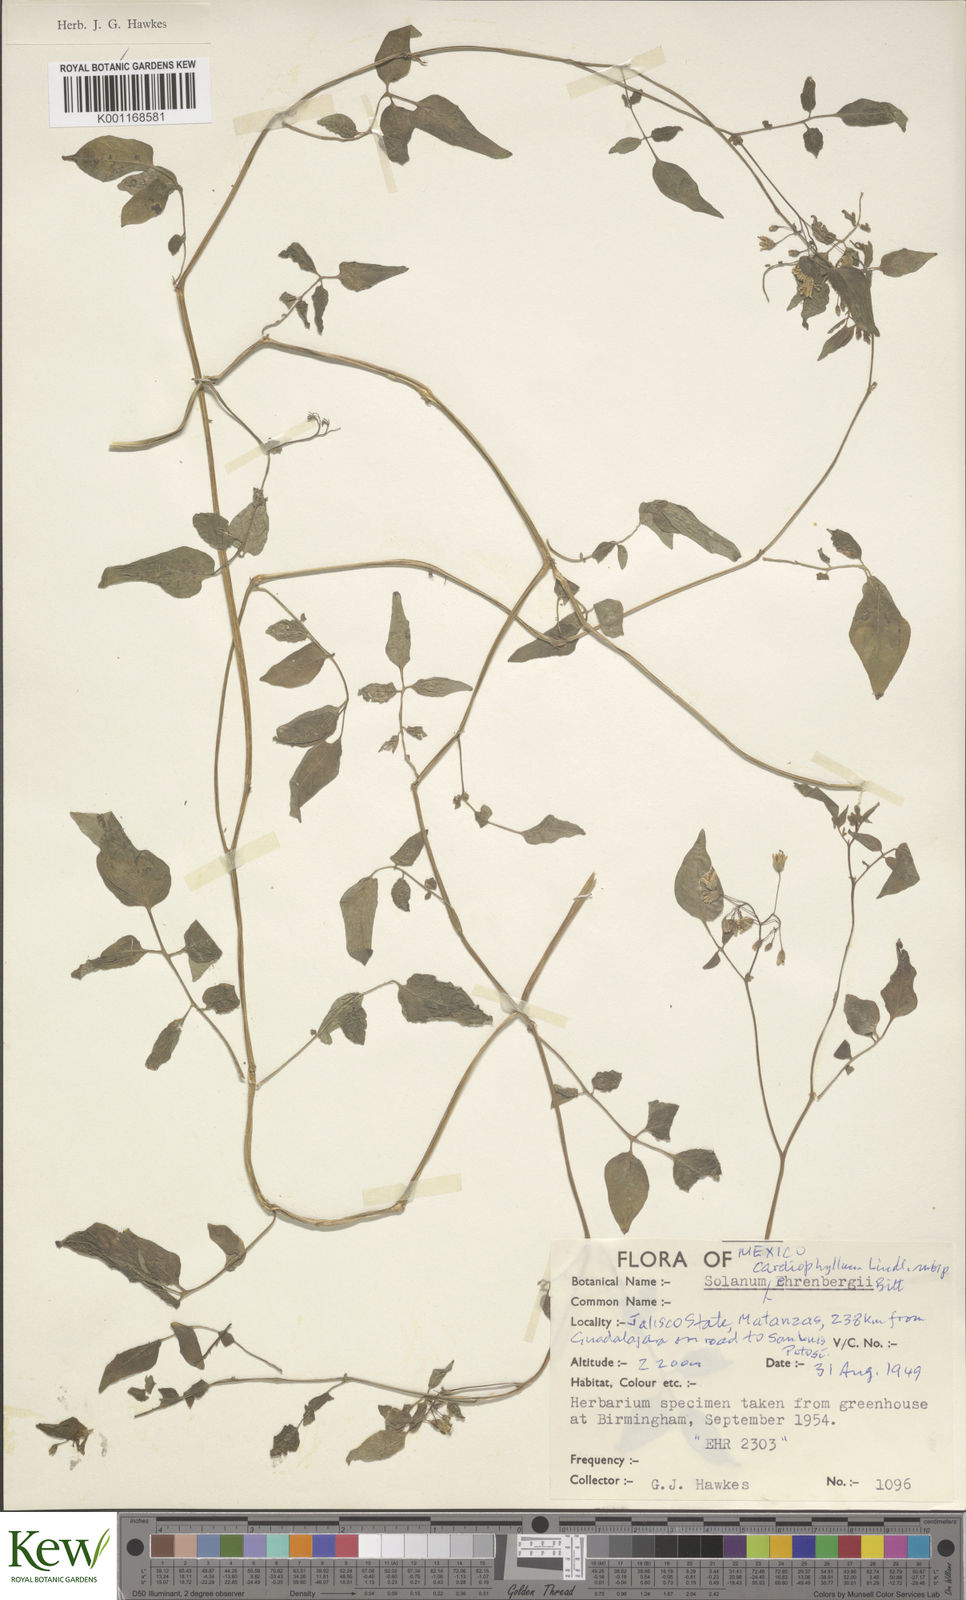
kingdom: Plantae
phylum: Tracheophyta
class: Magnoliopsida
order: Solanales
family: Solanaceae
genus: Solanum
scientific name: Solanum cardiophyllum
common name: Heartleaf horsenettle
